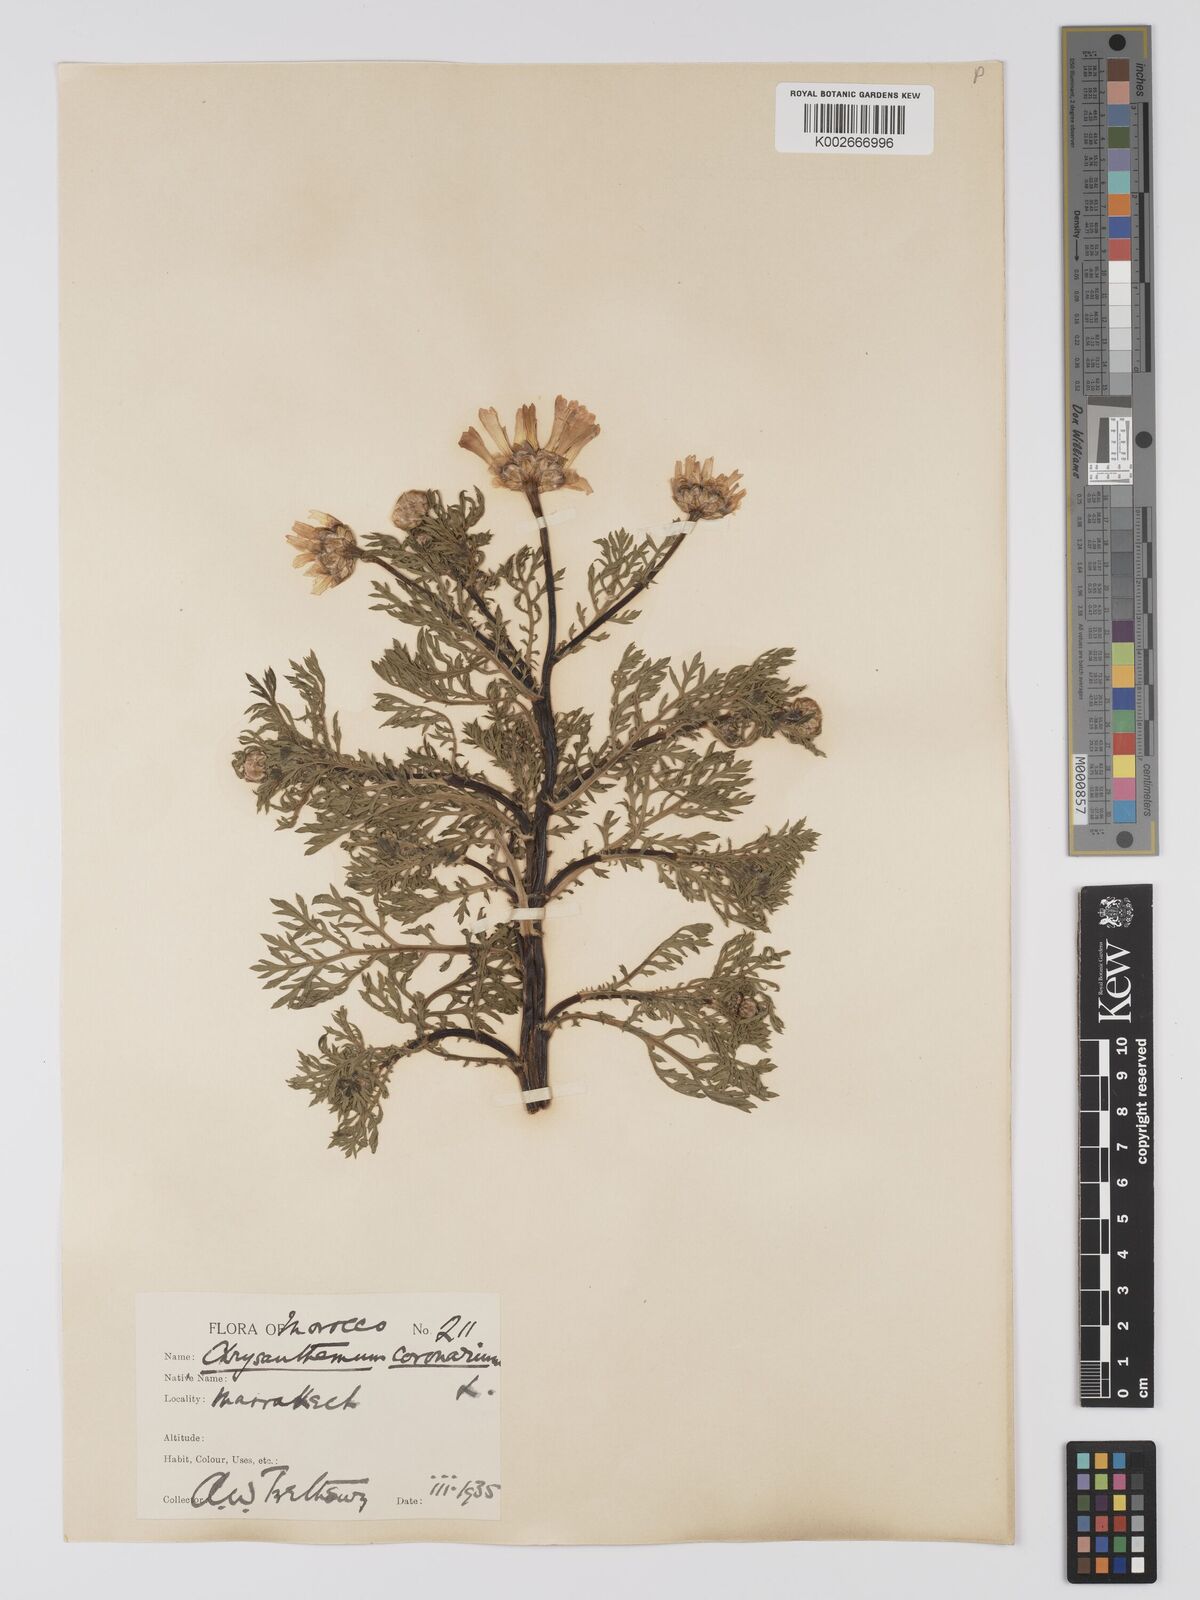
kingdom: Plantae
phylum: Tracheophyta
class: Magnoliopsida
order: Asterales
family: Asteraceae
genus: Glebionis
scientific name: Glebionis coronaria
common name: Crowndaisy
